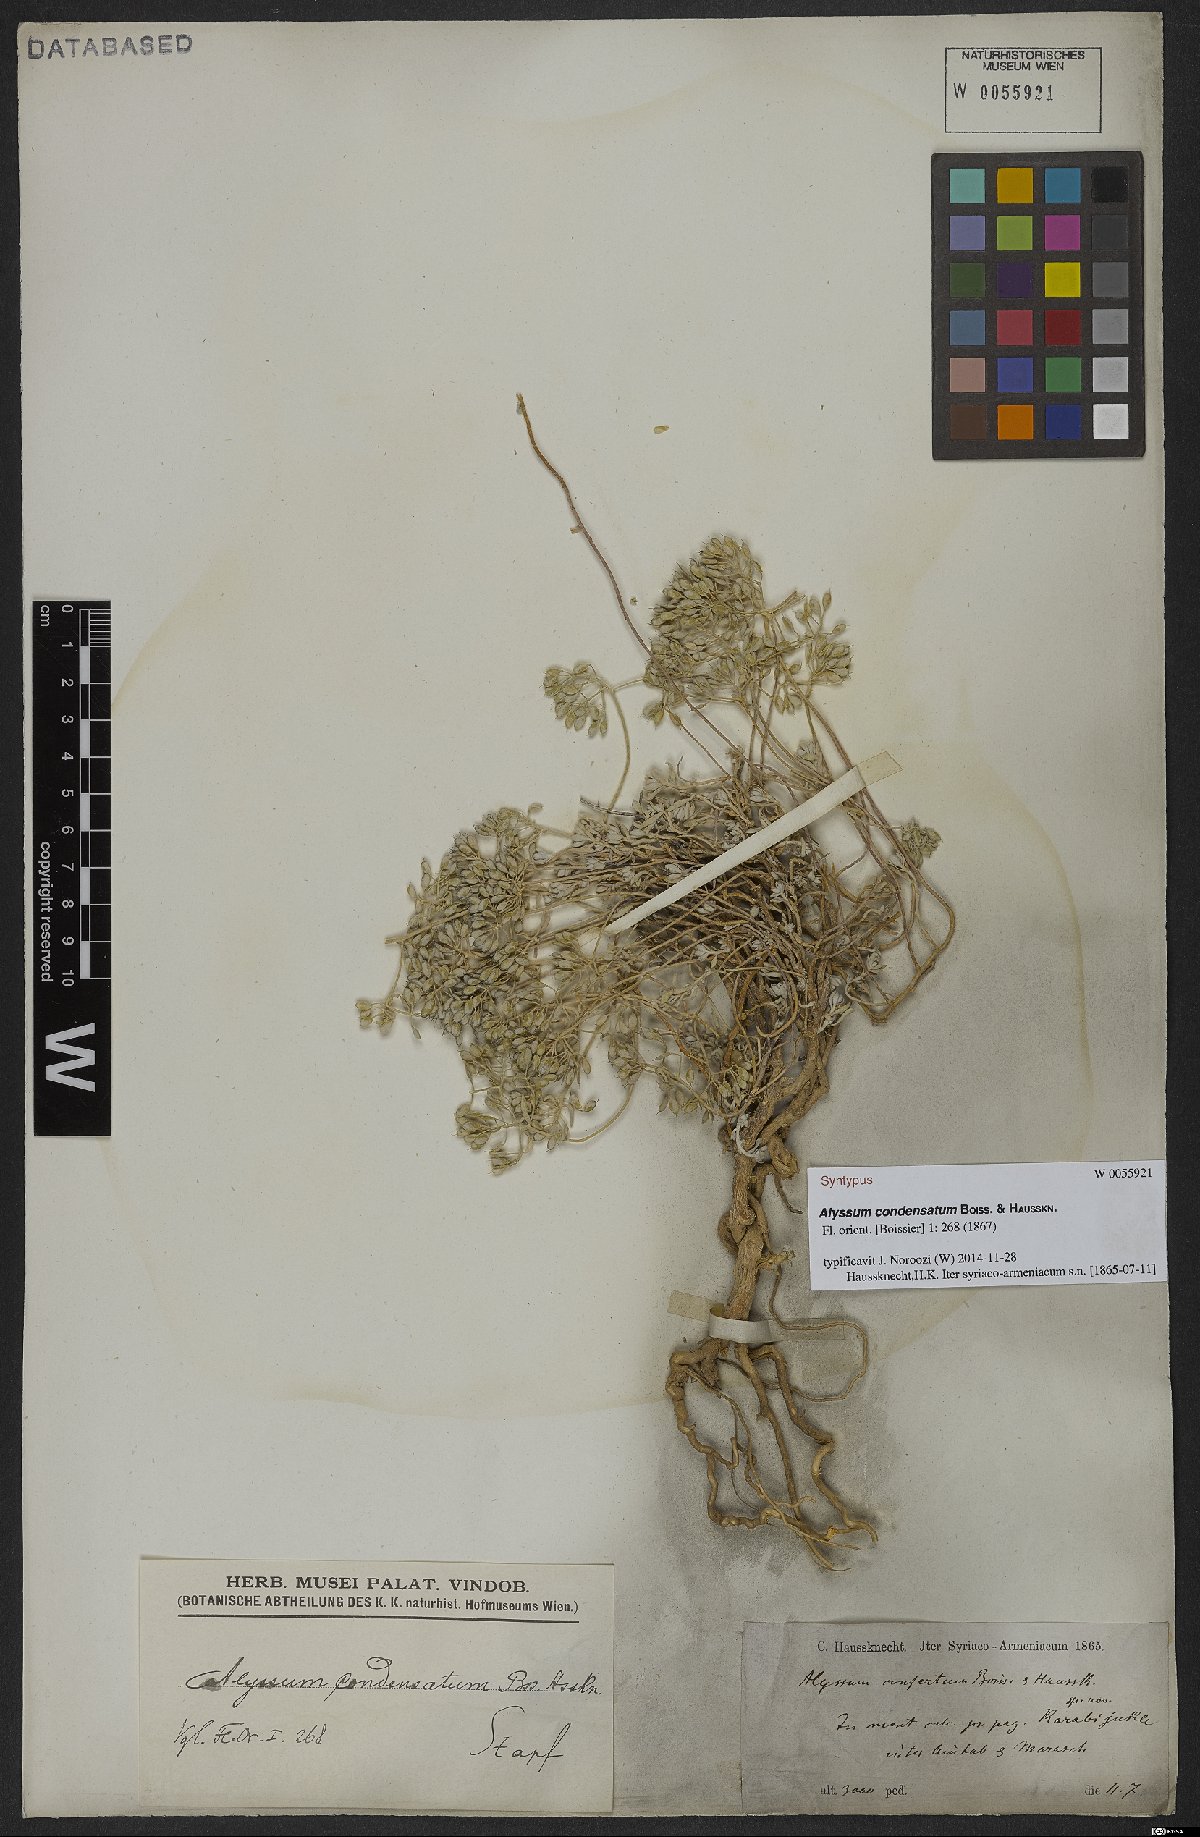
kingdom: Plantae
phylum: Tracheophyta
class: Magnoliopsida
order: Brassicales
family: Brassicaceae
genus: Odontarrhena
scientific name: Odontarrhena condensata
